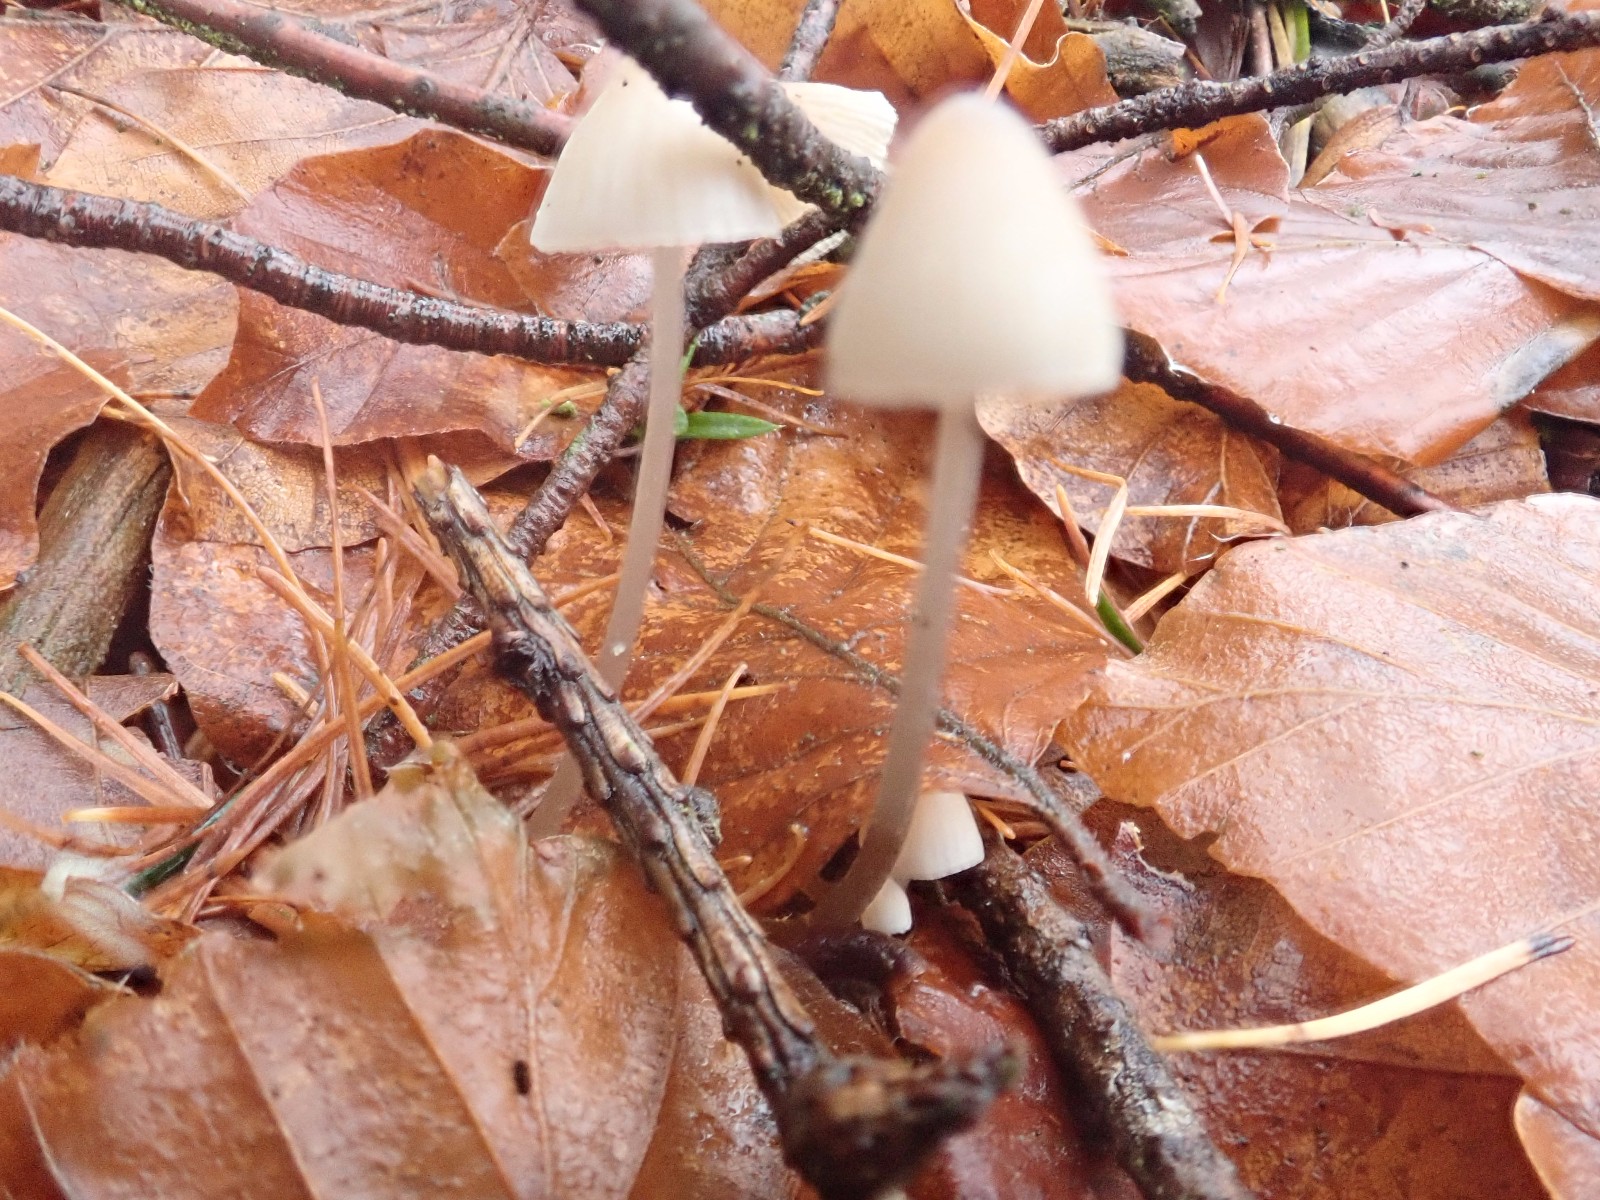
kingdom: Fungi
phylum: Basidiomycota
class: Agaricomycetes
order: Agaricales
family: Mycenaceae
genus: Mycena
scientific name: Mycena
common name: huesvamp
